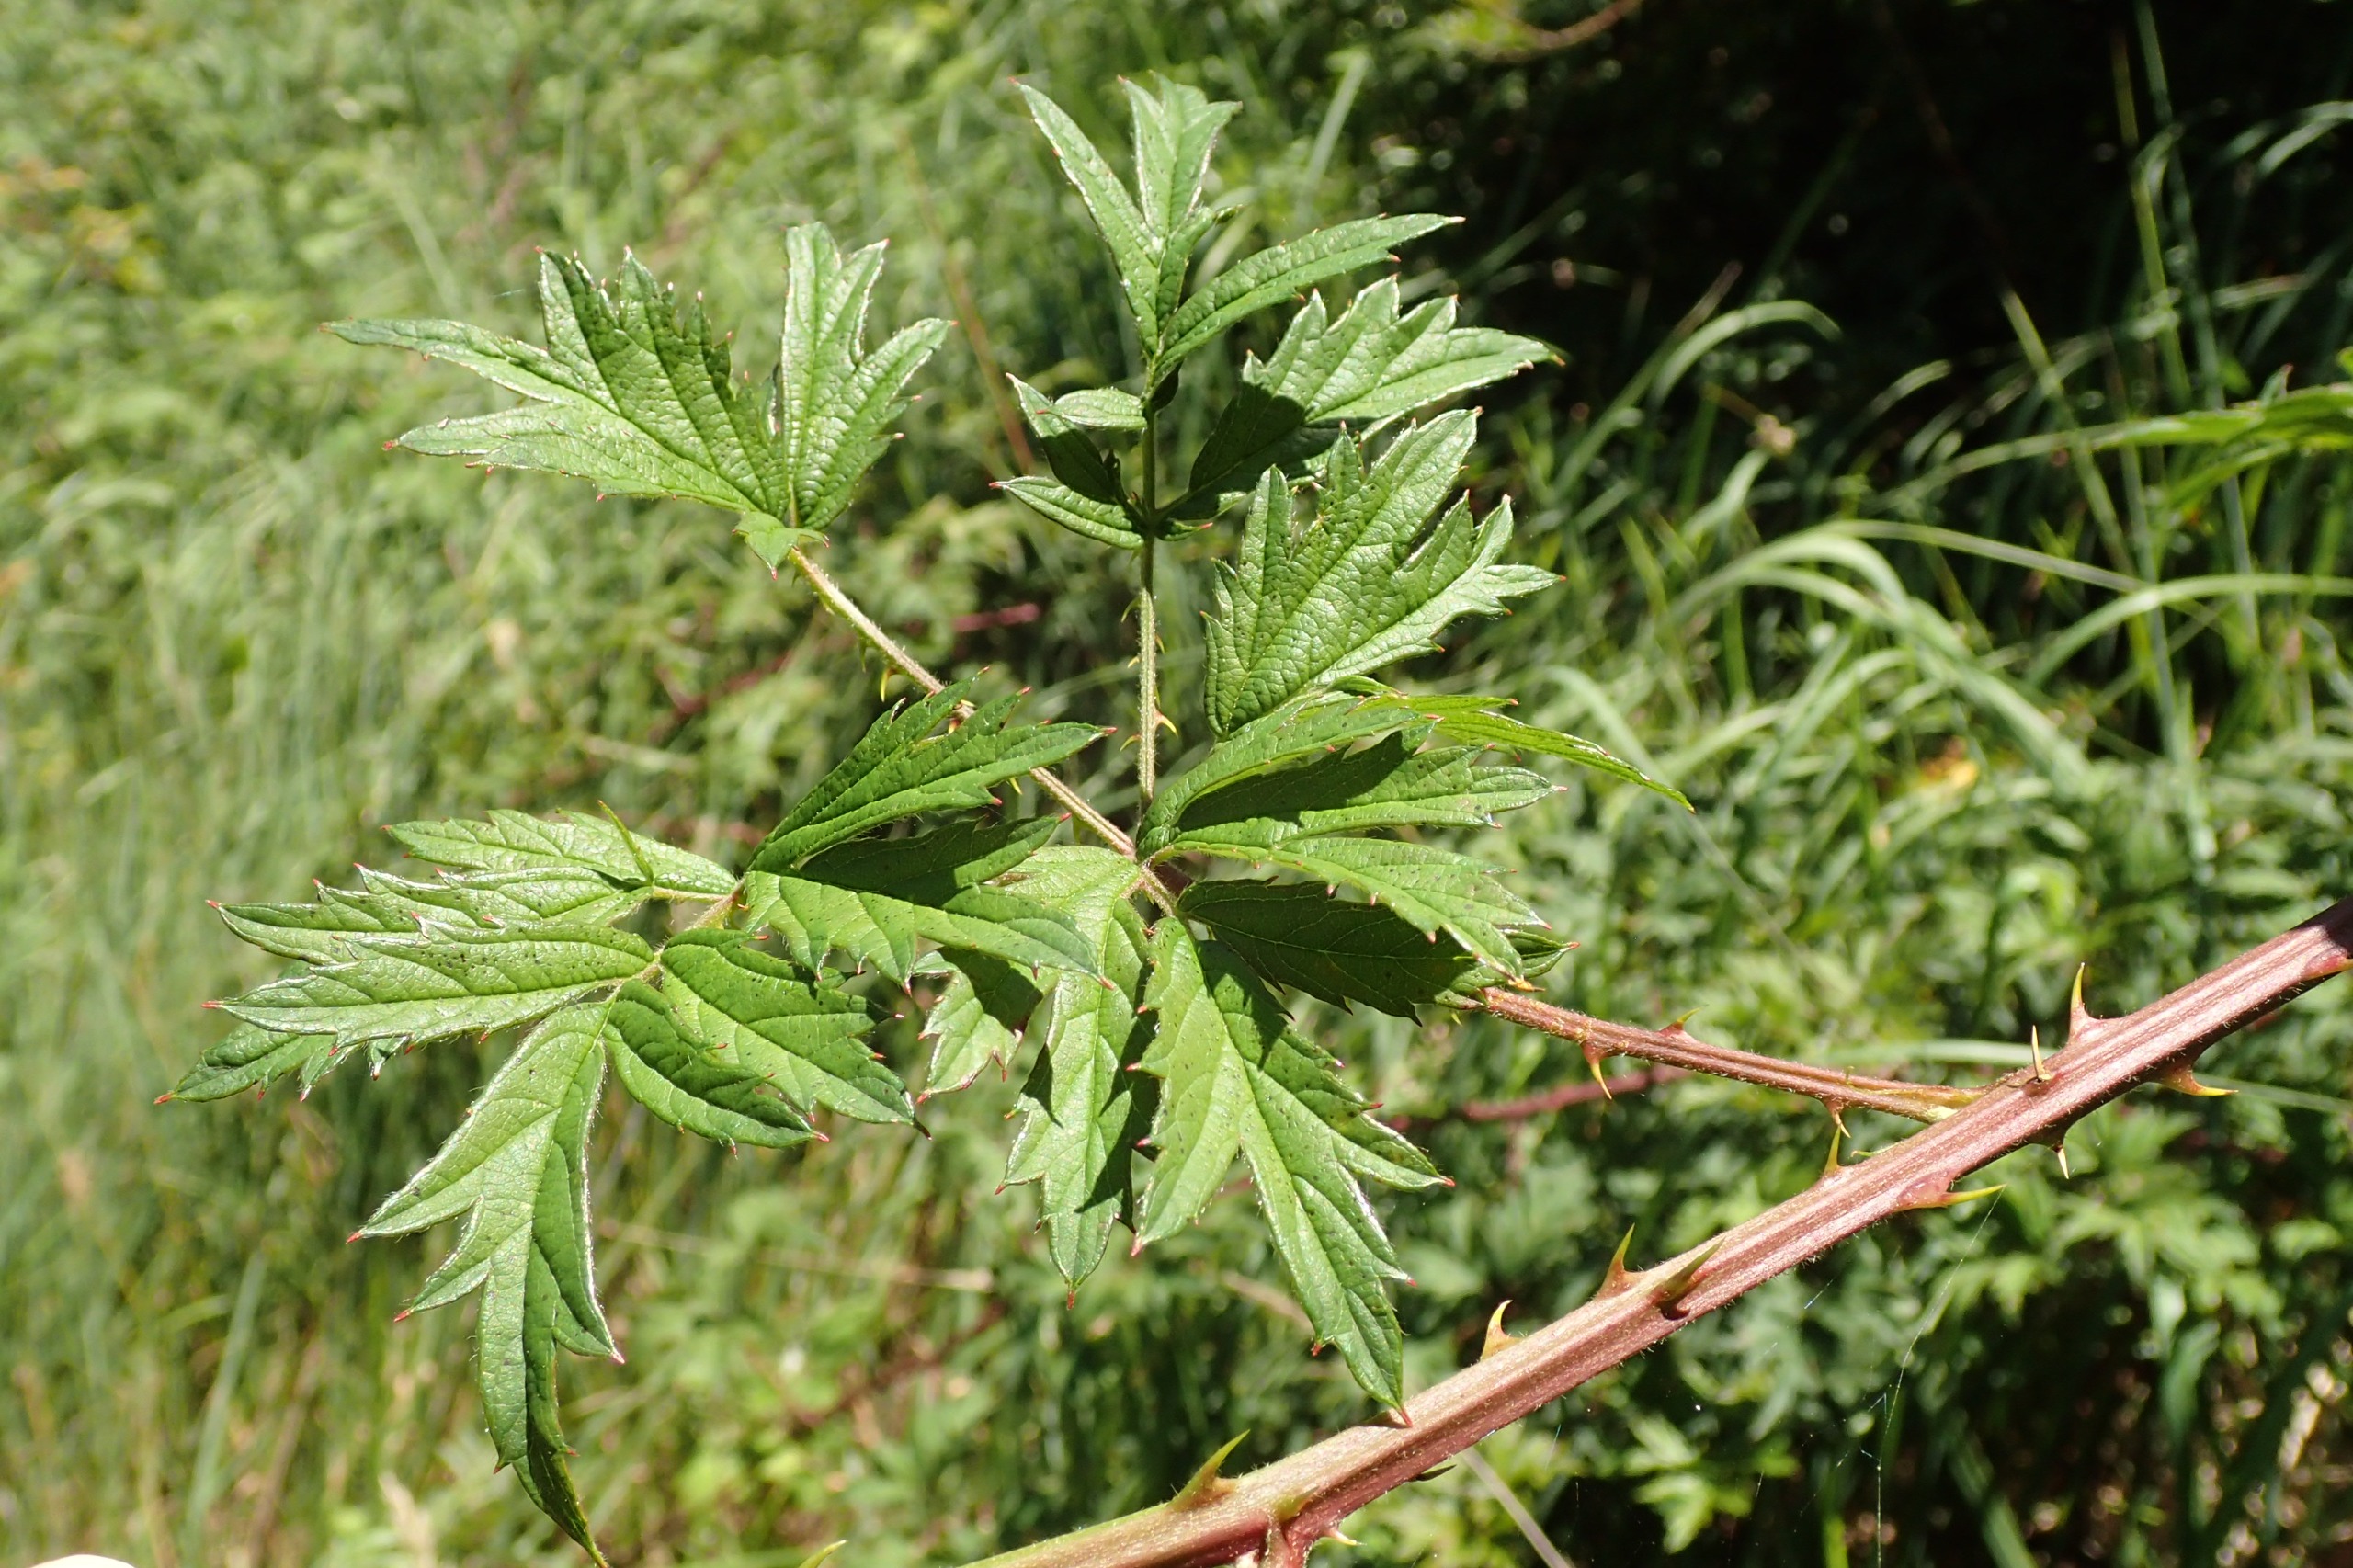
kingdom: Plantae
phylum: Tracheophyta
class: Magnoliopsida
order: Rosales
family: Rosaceae
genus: Rubus
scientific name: Rubus laciniatus
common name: Fliget brombær
